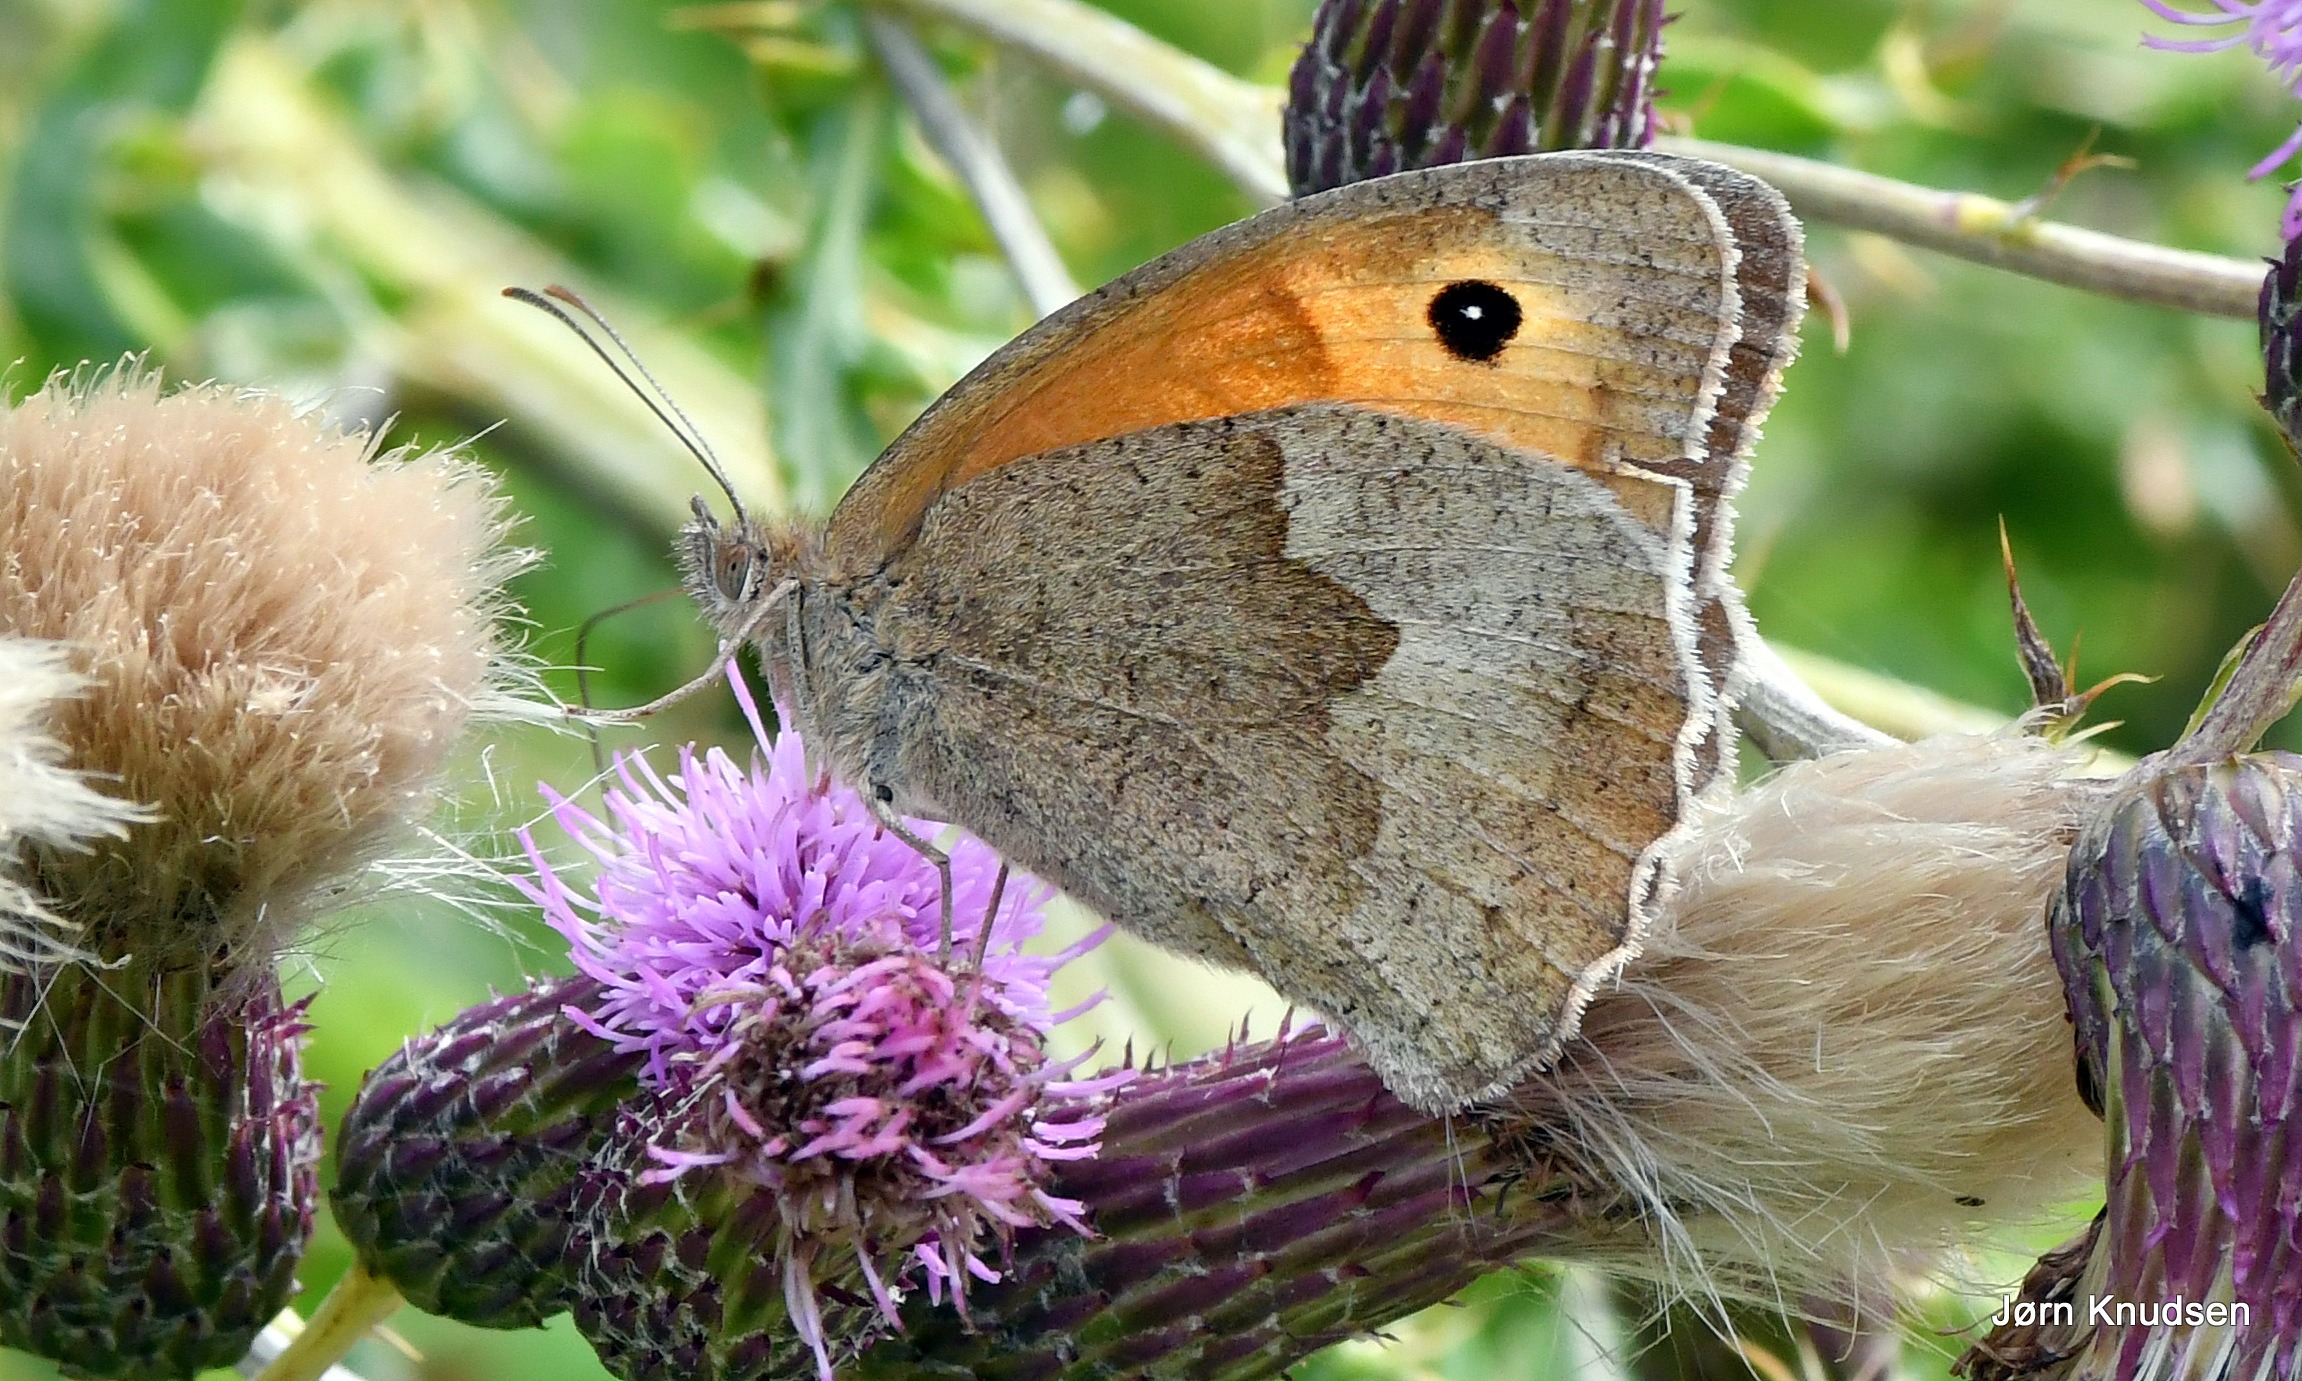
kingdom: Animalia
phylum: Arthropoda
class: Insecta
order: Lepidoptera
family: Nymphalidae
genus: Maniola
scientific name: Maniola jurtina
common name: Græsrandøje
